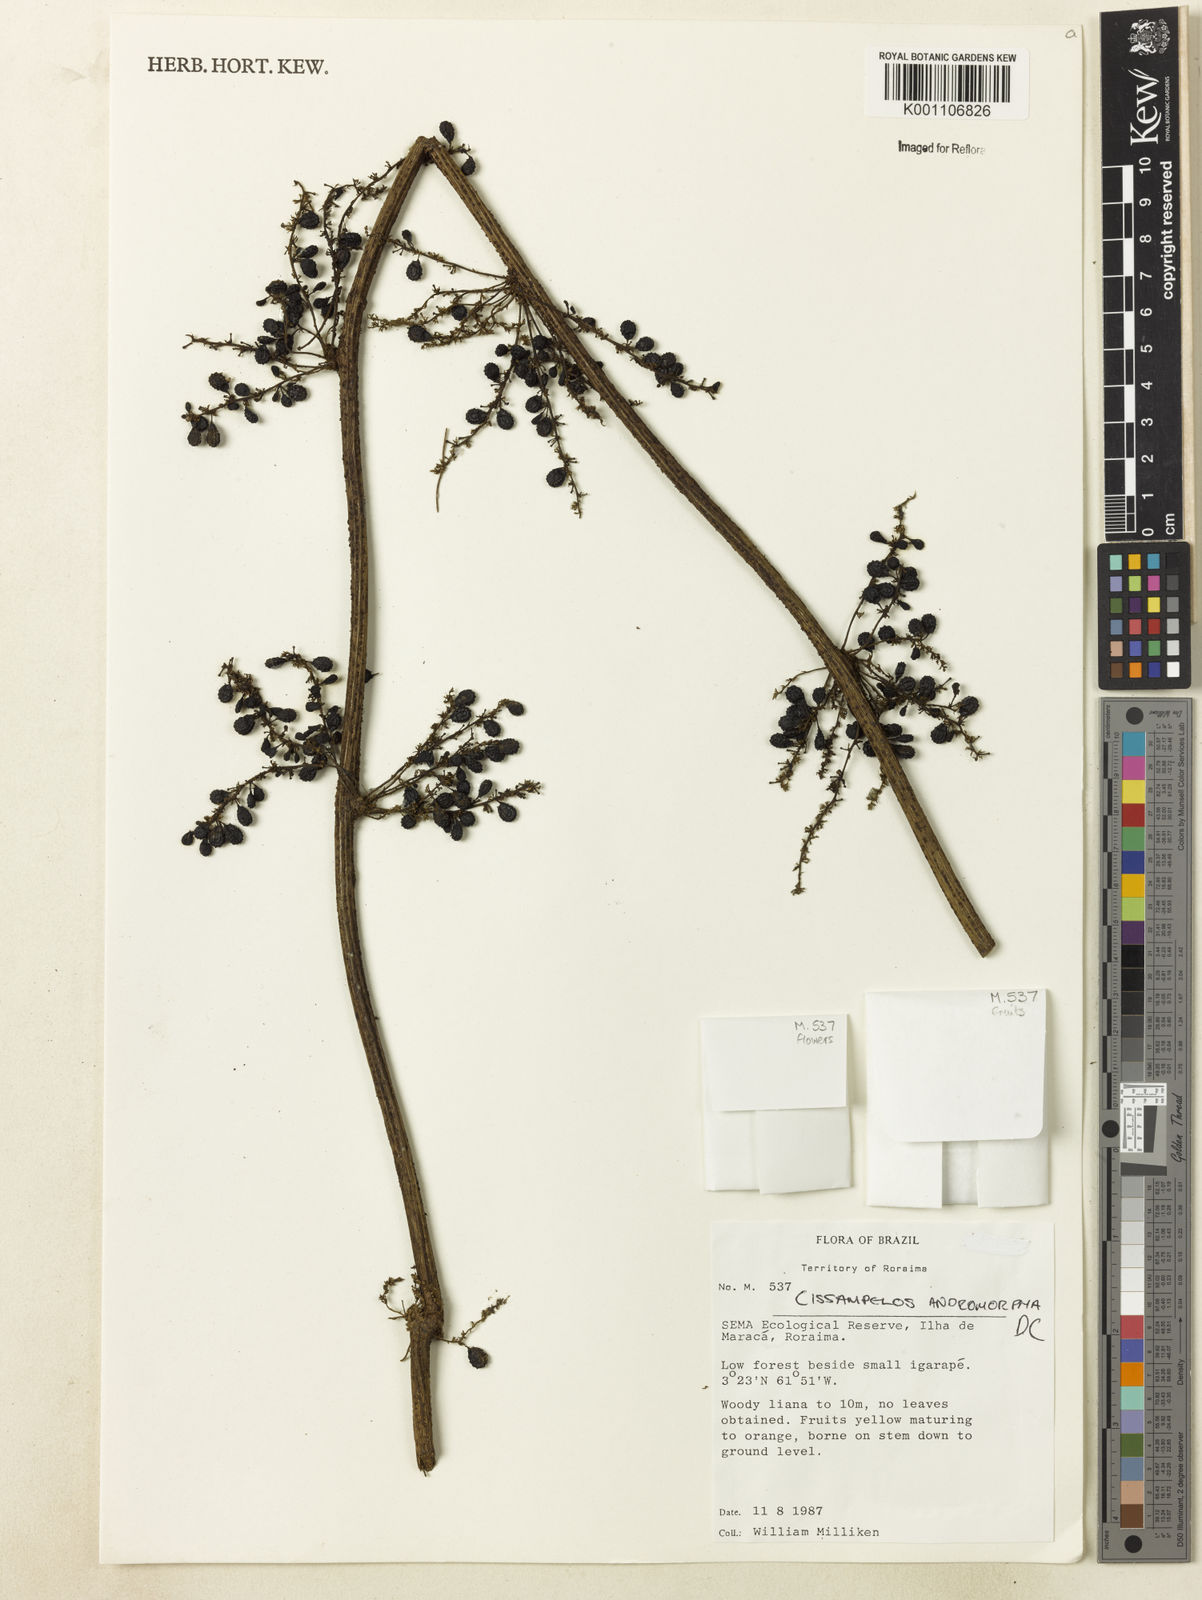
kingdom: Plantae
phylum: Tracheophyta
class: Magnoliopsida
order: Ranunculales
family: Menispermaceae
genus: Cissampelos
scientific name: Cissampelos andromorpha
